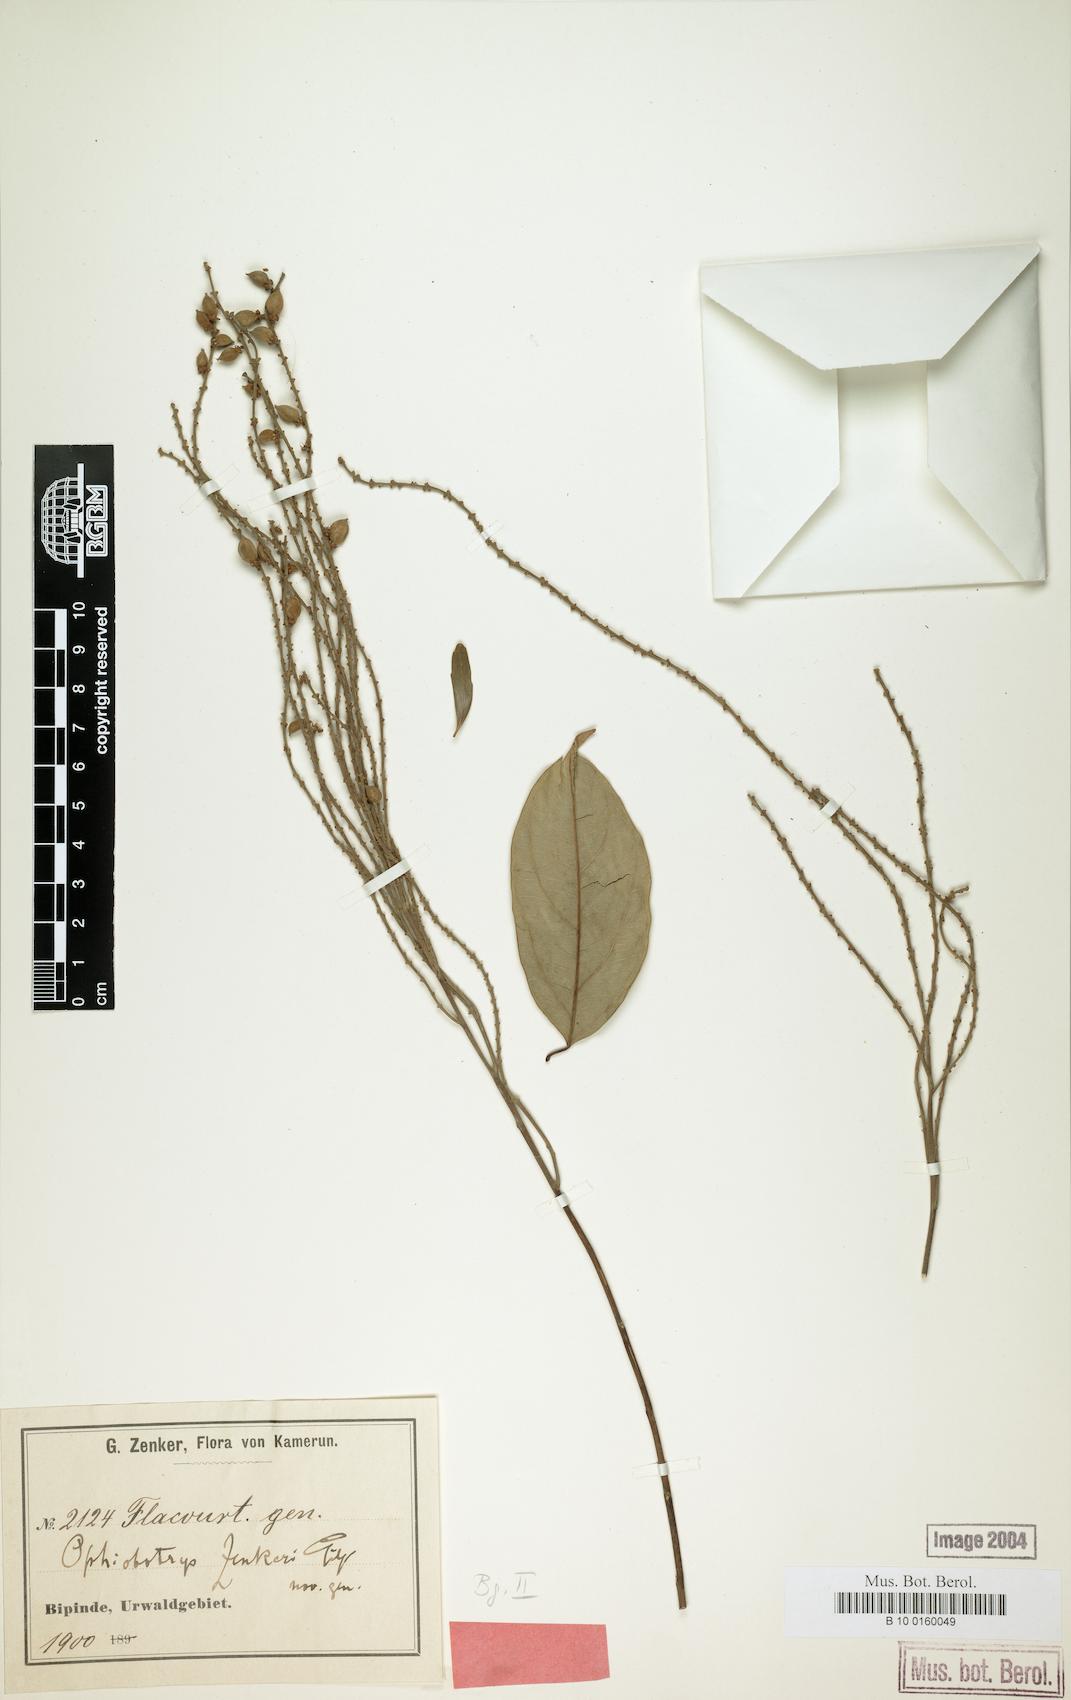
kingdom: Plantae
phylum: Tracheophyta
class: Magnoliopsida
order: Malpighiales
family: Salicaceae
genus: Ophiobotrys
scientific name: Ophiobotrys zenkeri
